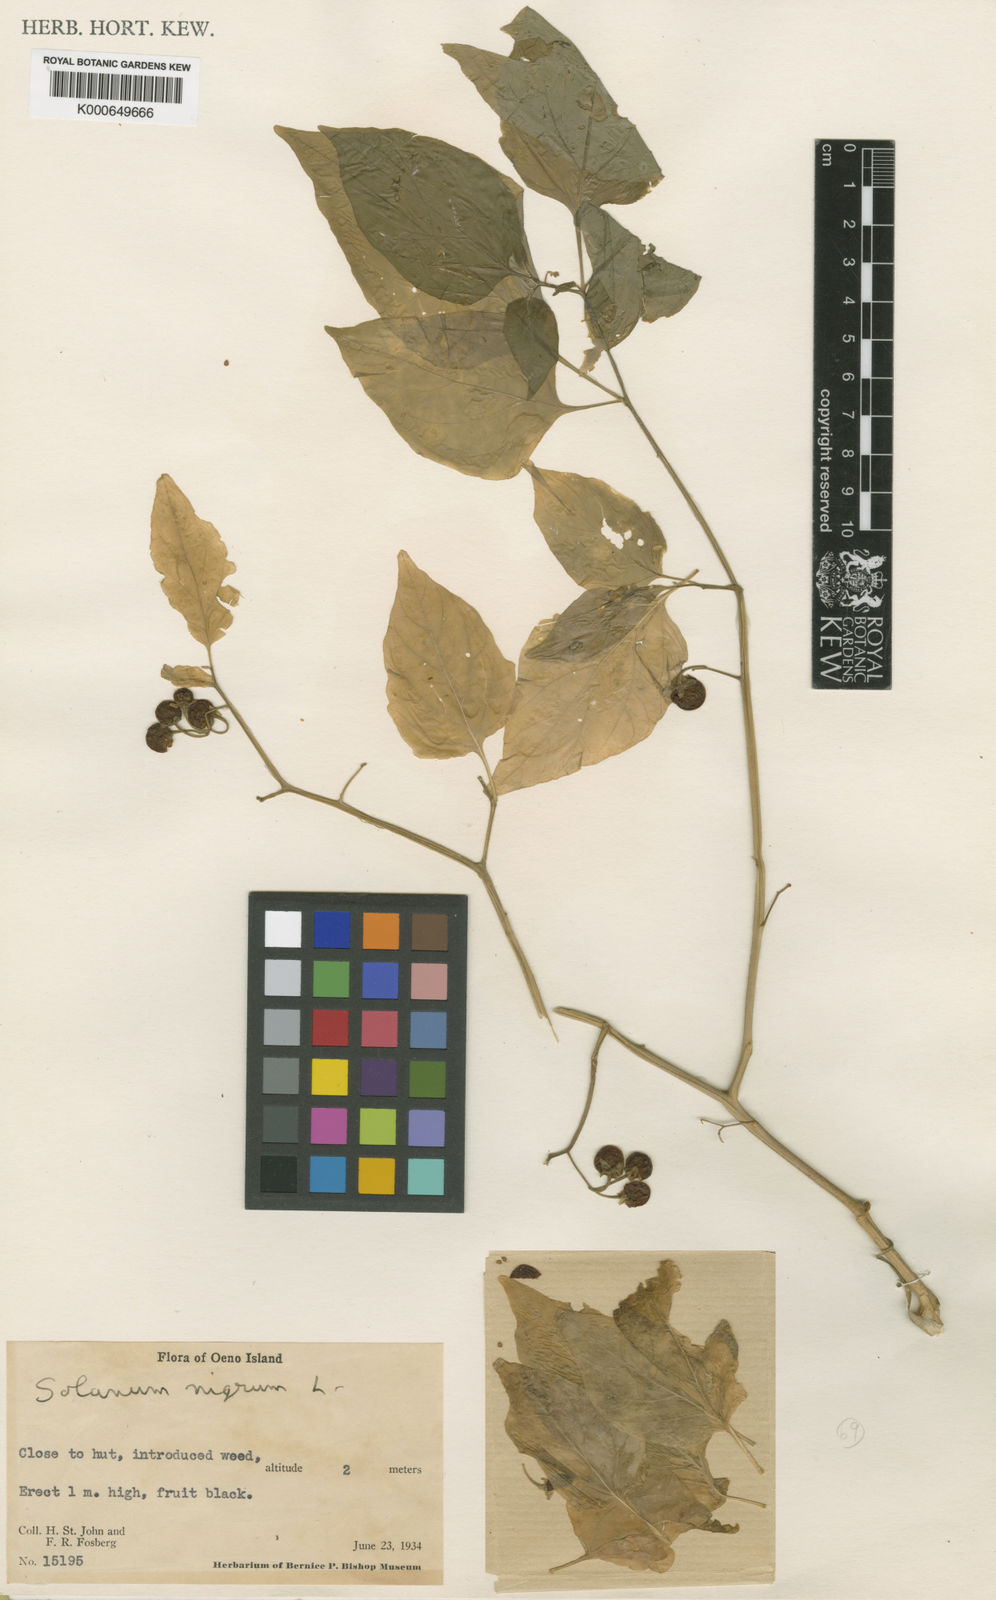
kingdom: Plantae
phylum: Tracheophyta
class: Magnoliopsida
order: Solanales
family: Solanaceae
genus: Solanum
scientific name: Solanum americanum
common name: American black nightshade
